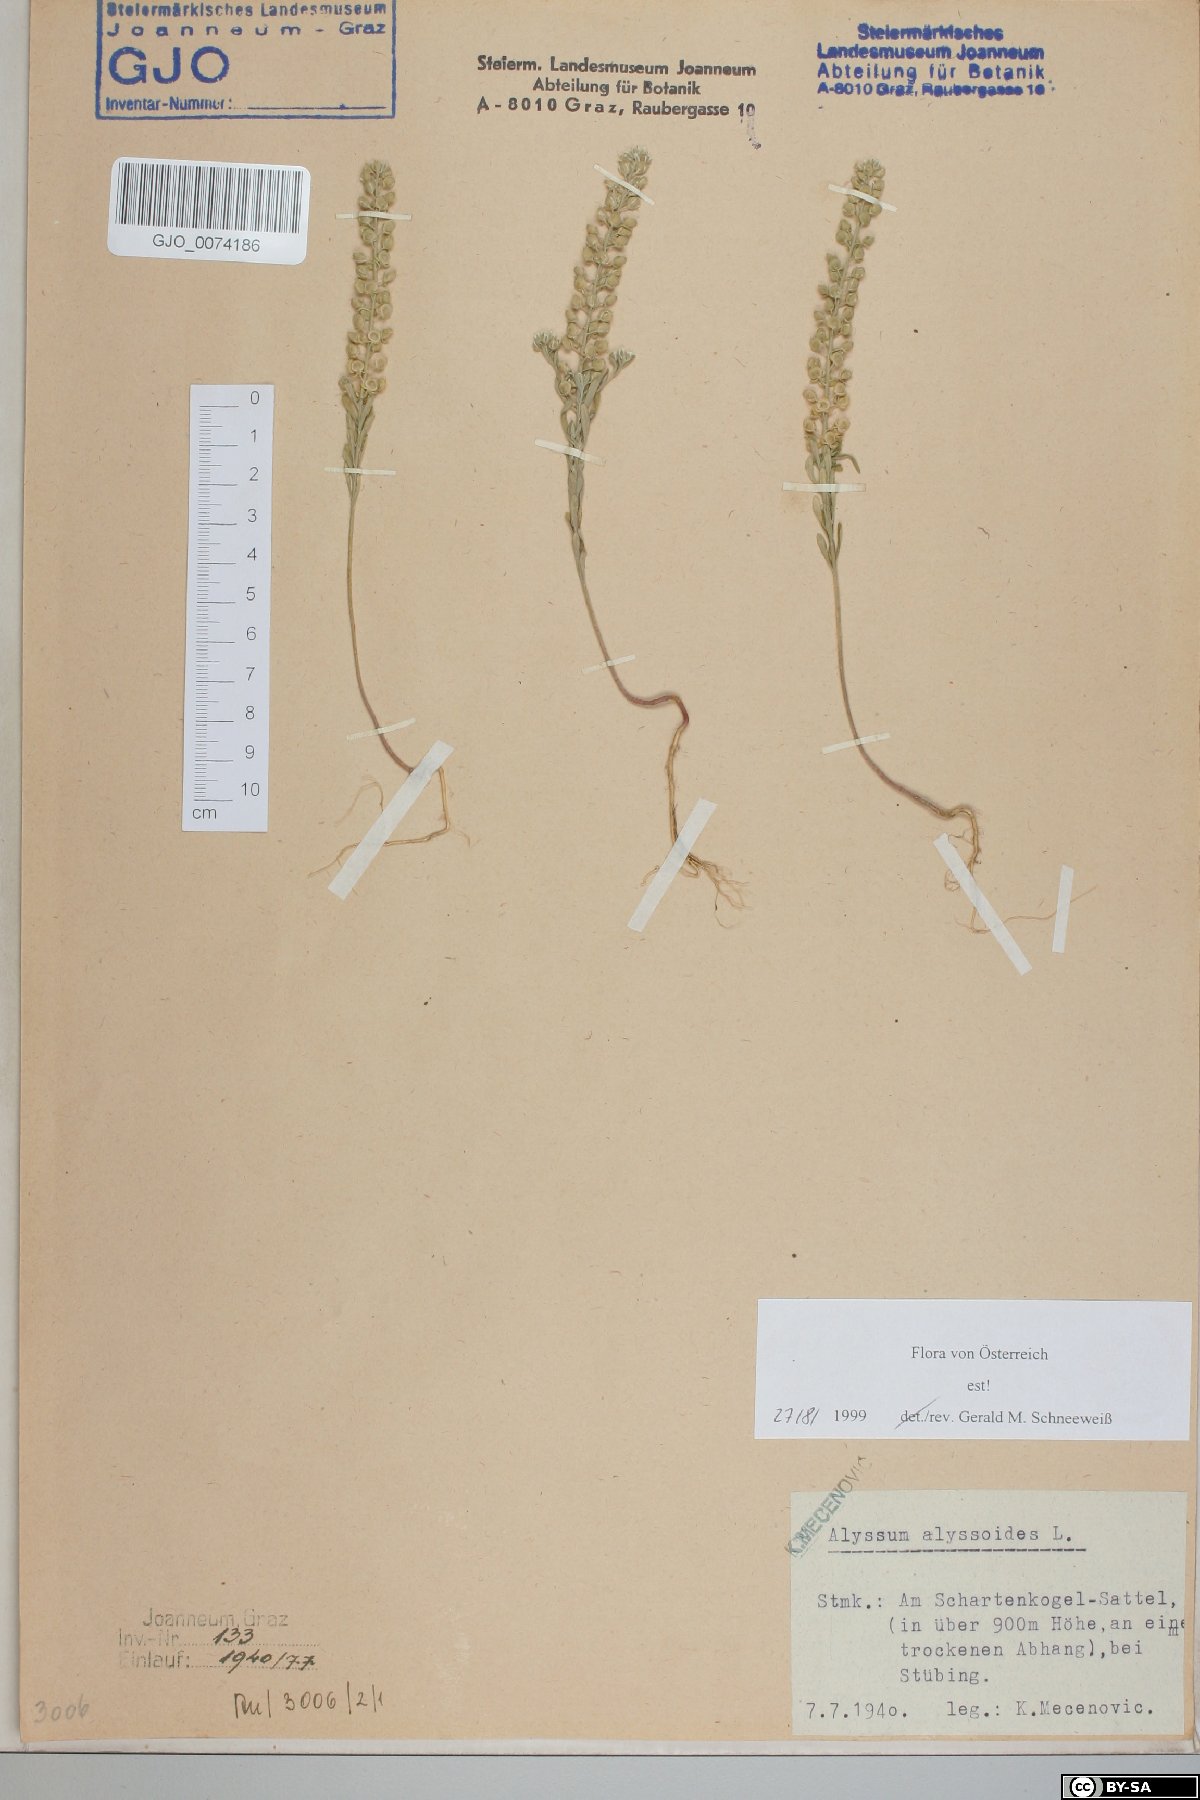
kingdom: Plantae
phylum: Tracheophyta
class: Magnoliopsida
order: Brassicales
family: Brassicaceae
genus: Alyssum
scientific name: Alyssum alyssoides
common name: Small alison
